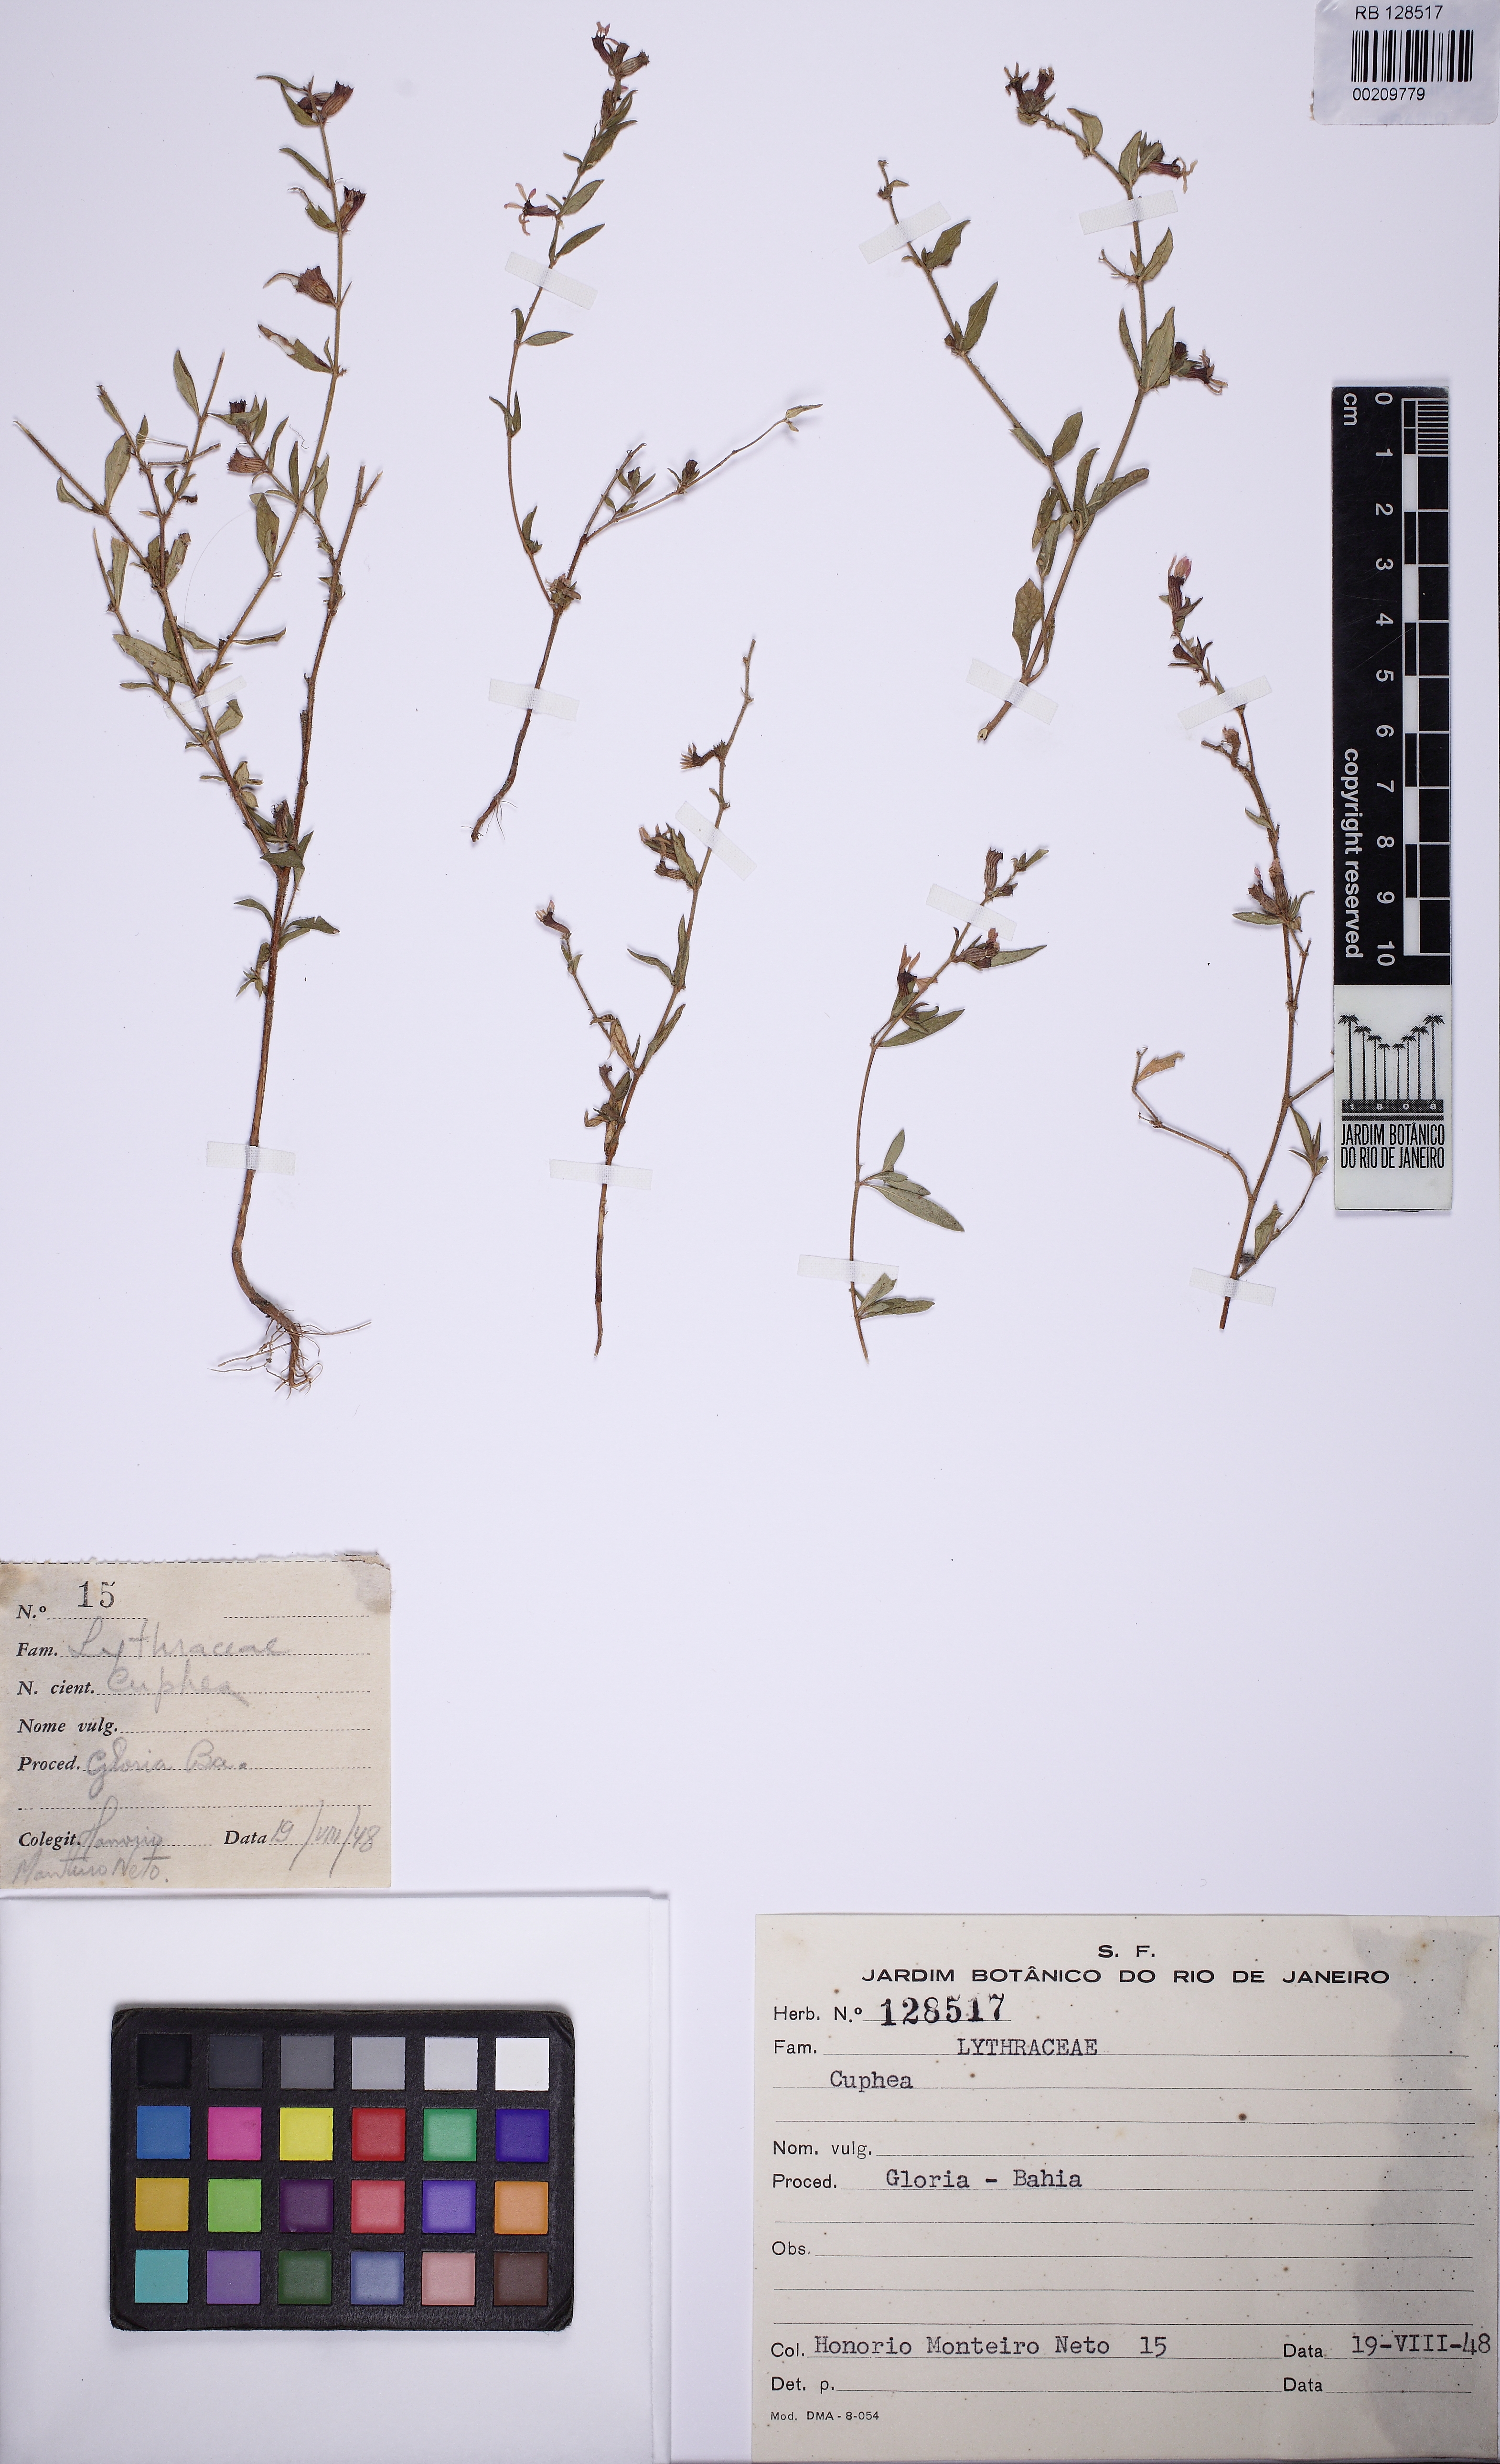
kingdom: Plantae
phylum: Tracheophyta
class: Magnoliopsida
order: Myrtales
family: Lythraceae
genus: Cuphea
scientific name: Cuphea strigulosa
